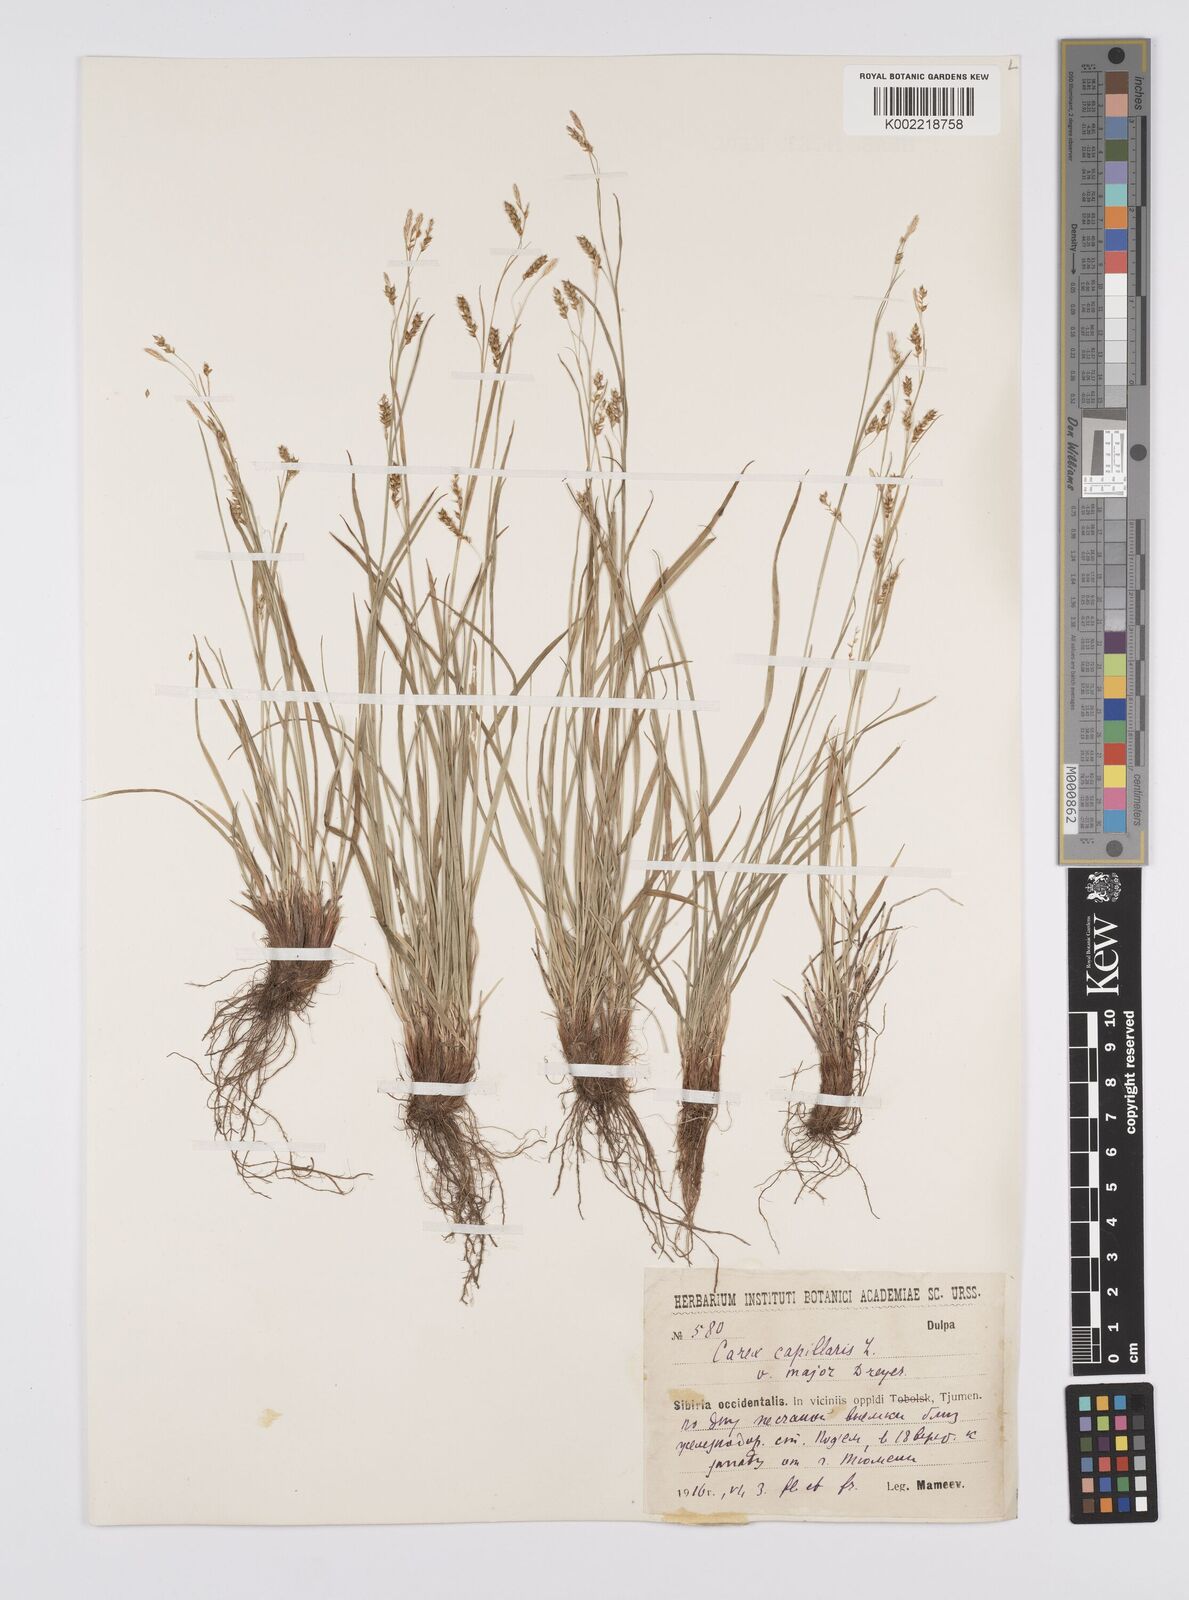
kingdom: Plantae
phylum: Tracheophyta
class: Liliopsida
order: Poales
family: Cyperaceae
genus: Carex
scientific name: Carex capillaris
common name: Hair sedge
